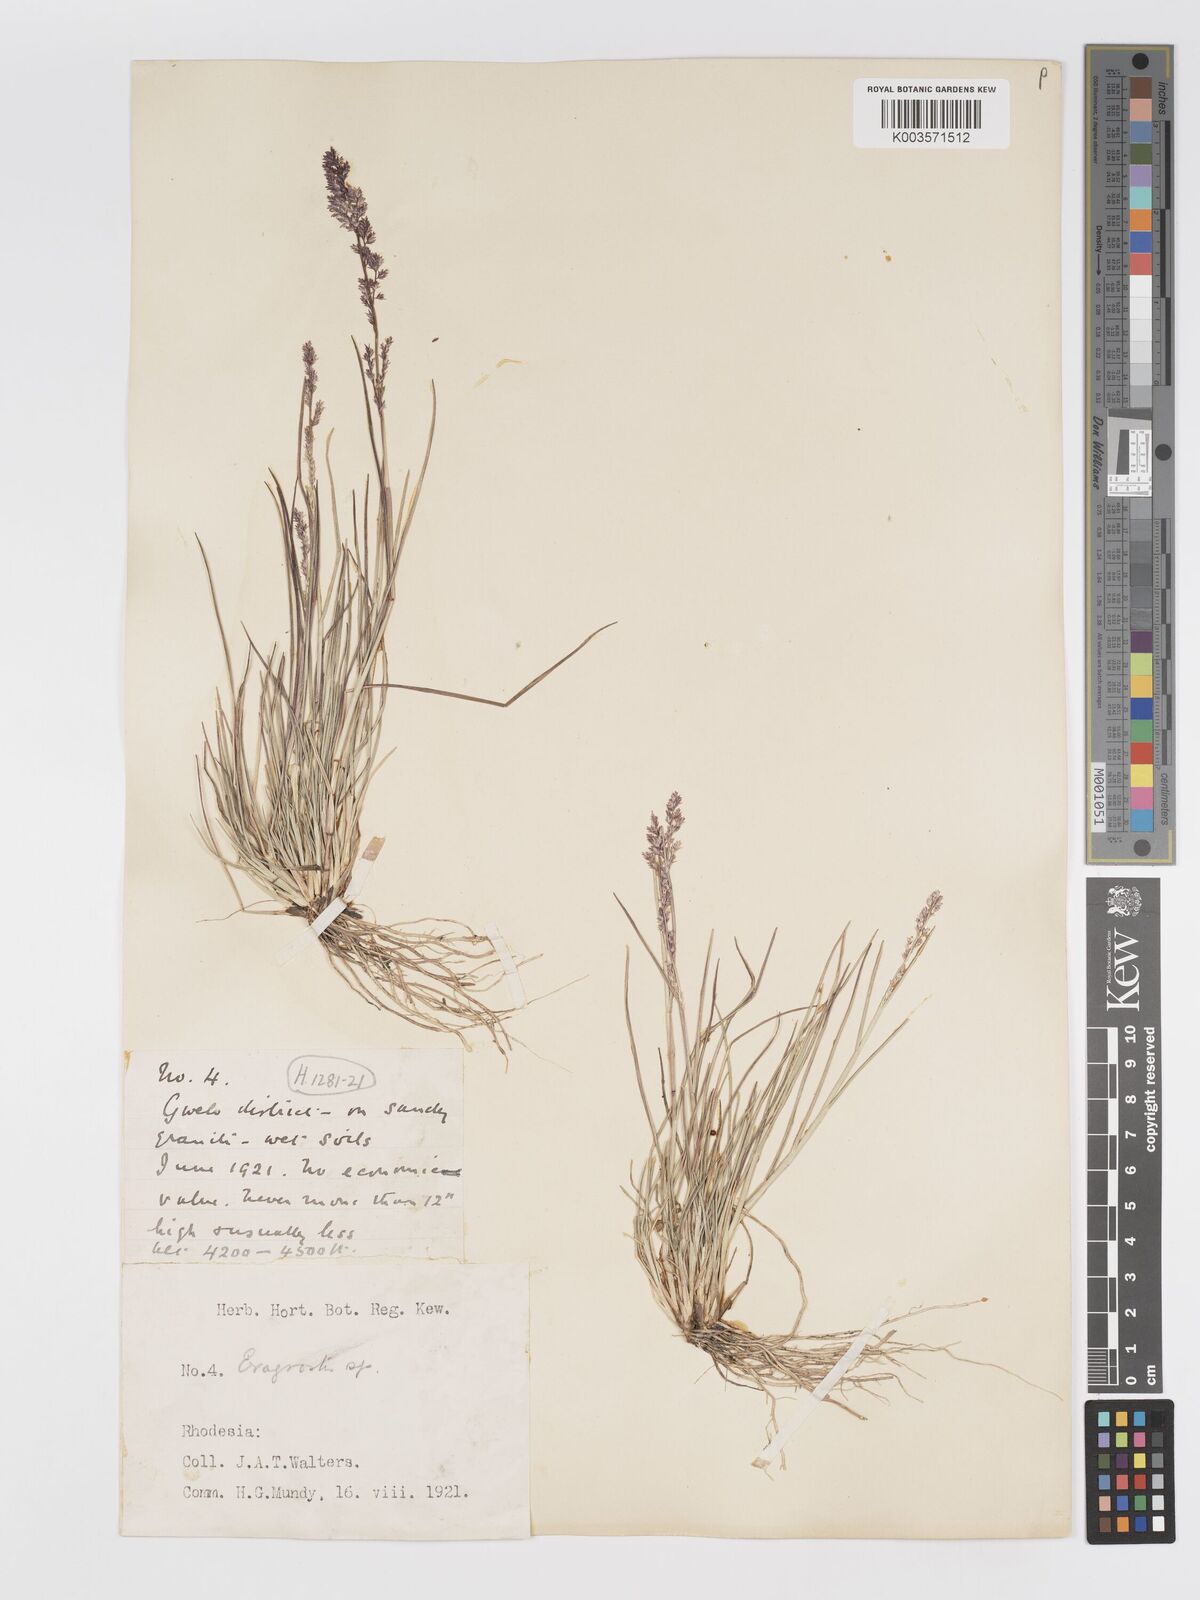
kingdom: Plantae
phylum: Tracheophyta
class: Liliopsida
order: Poales
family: Poaceae
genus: Eragrostis
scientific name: Eragrostis gummiflua
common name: Gum grass
